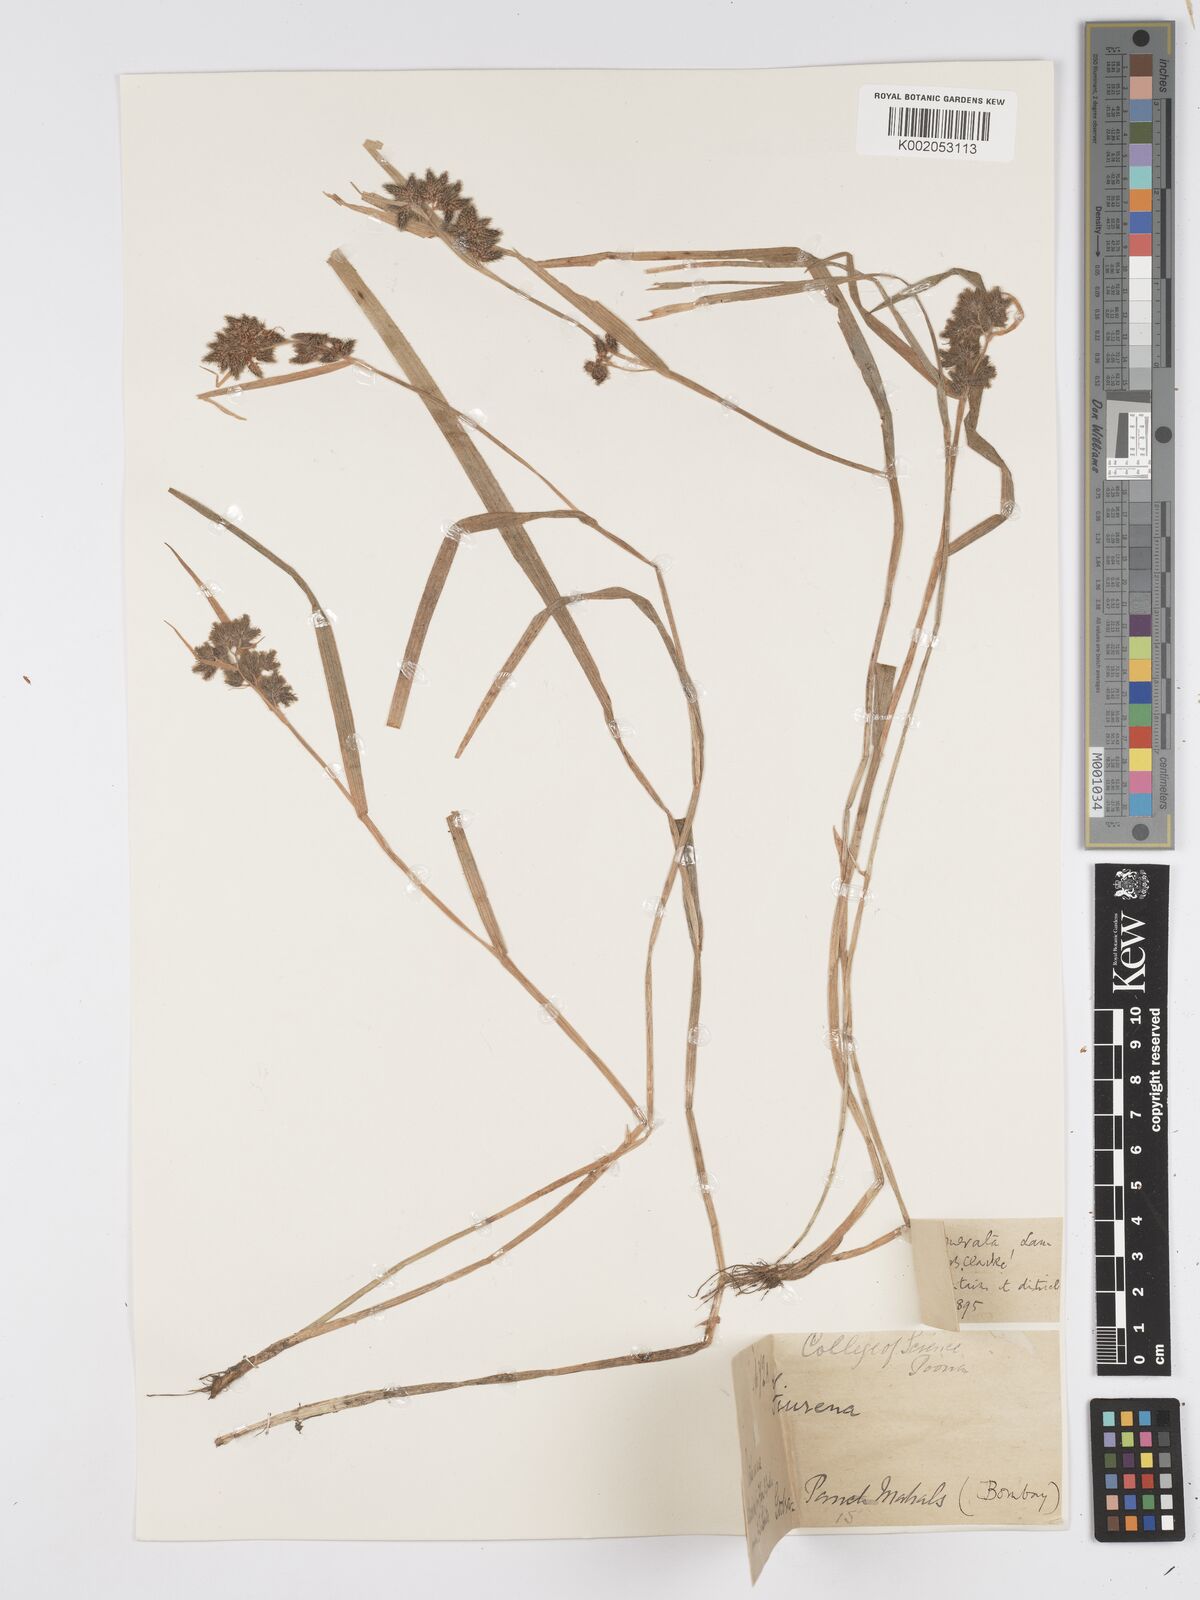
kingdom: Plantae
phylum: Tracheophyta
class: Liliopsida
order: Poales
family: Cyperaceae
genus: Fuirena
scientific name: Fuirena ciliaris
